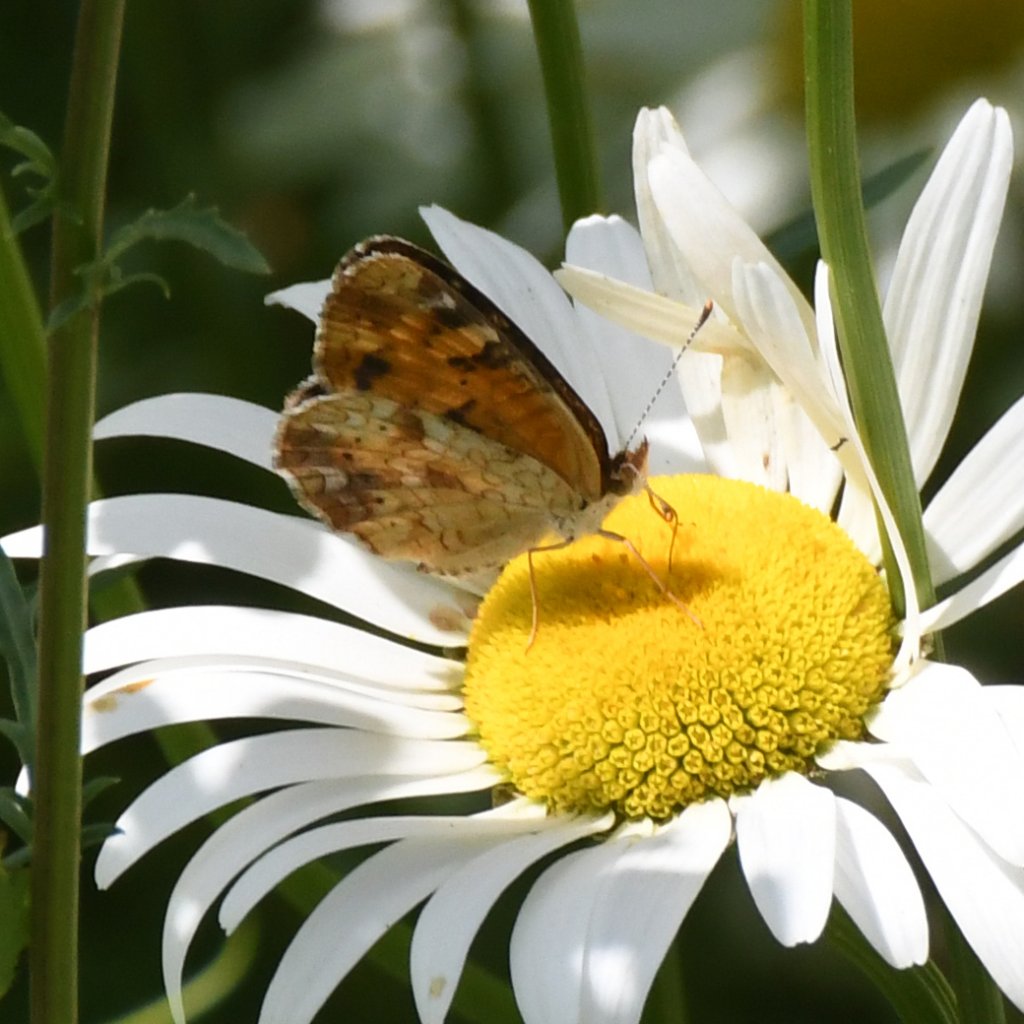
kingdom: Animalia
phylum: Arthropoda
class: Insecta
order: Lepidoptera
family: Nymphalidae
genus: Phyciodes
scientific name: Phyciodes tharos
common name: Northern Crescent
